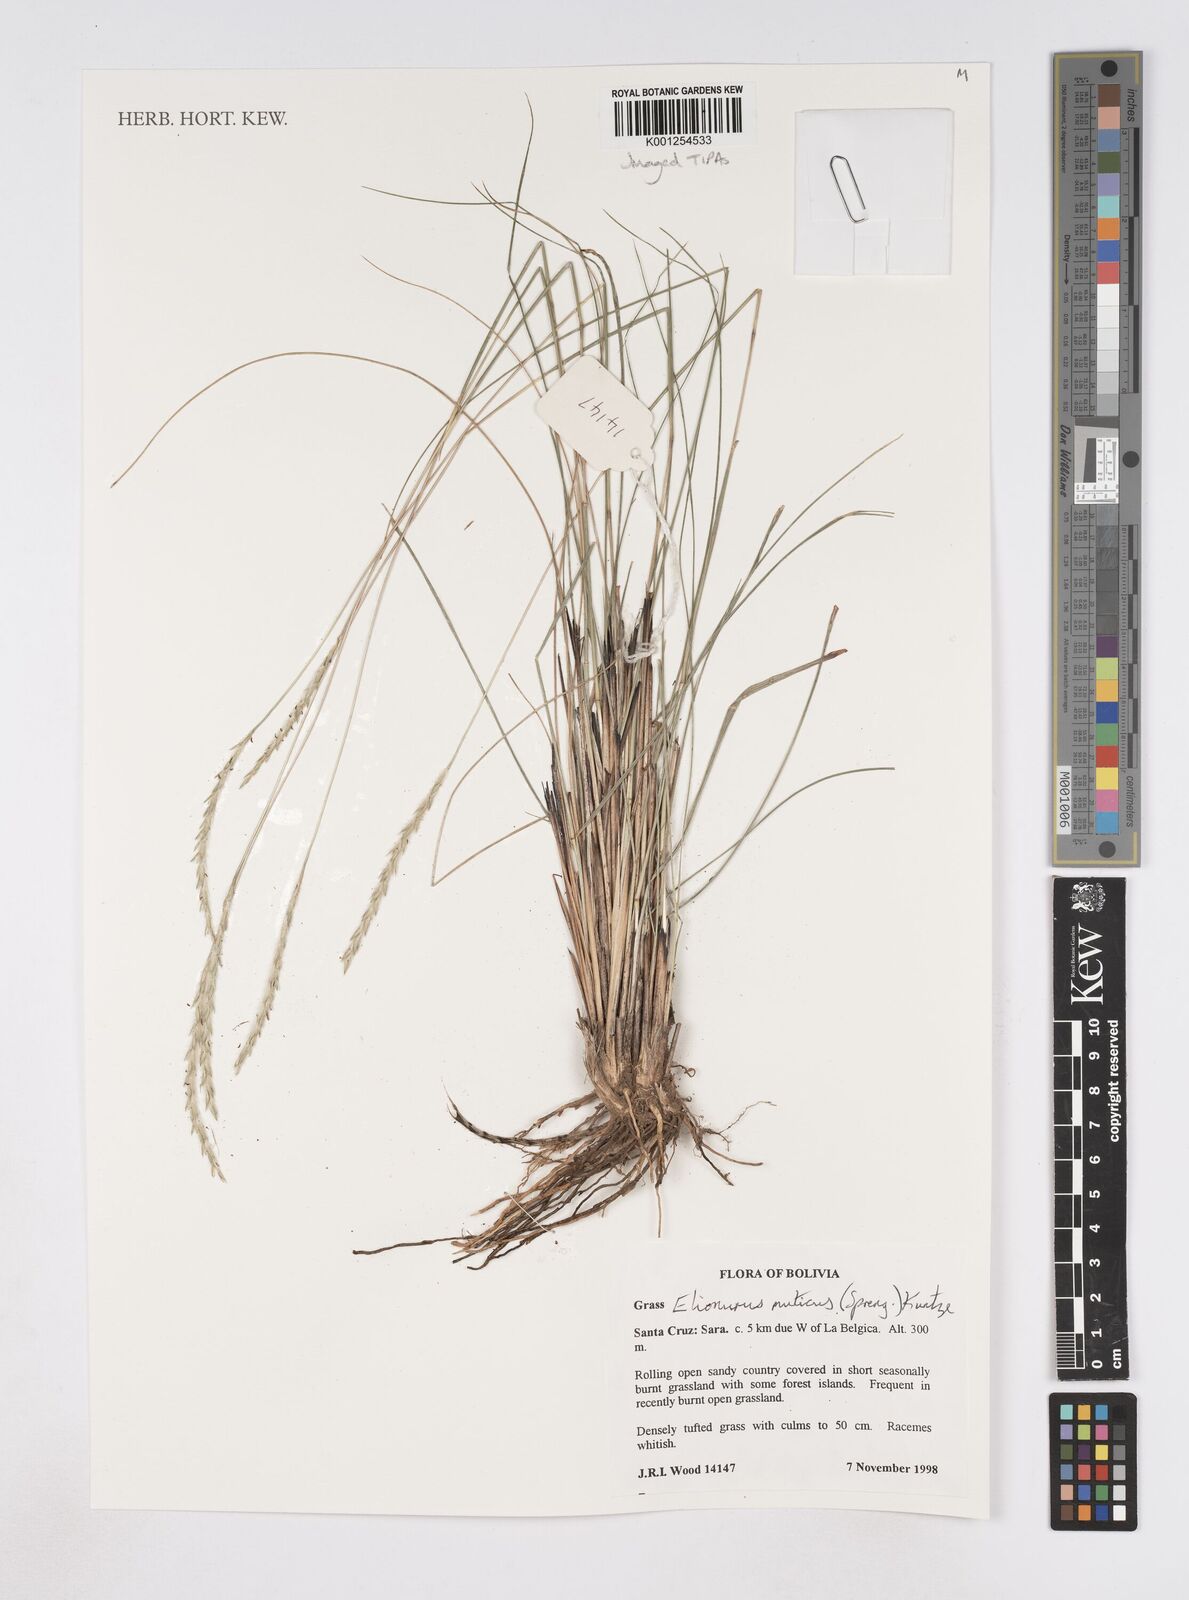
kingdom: Plantae
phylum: Tracheophyta
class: Liliopsida
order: Poales
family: Poaceae
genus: Elionurus
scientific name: Elionurus muticus
